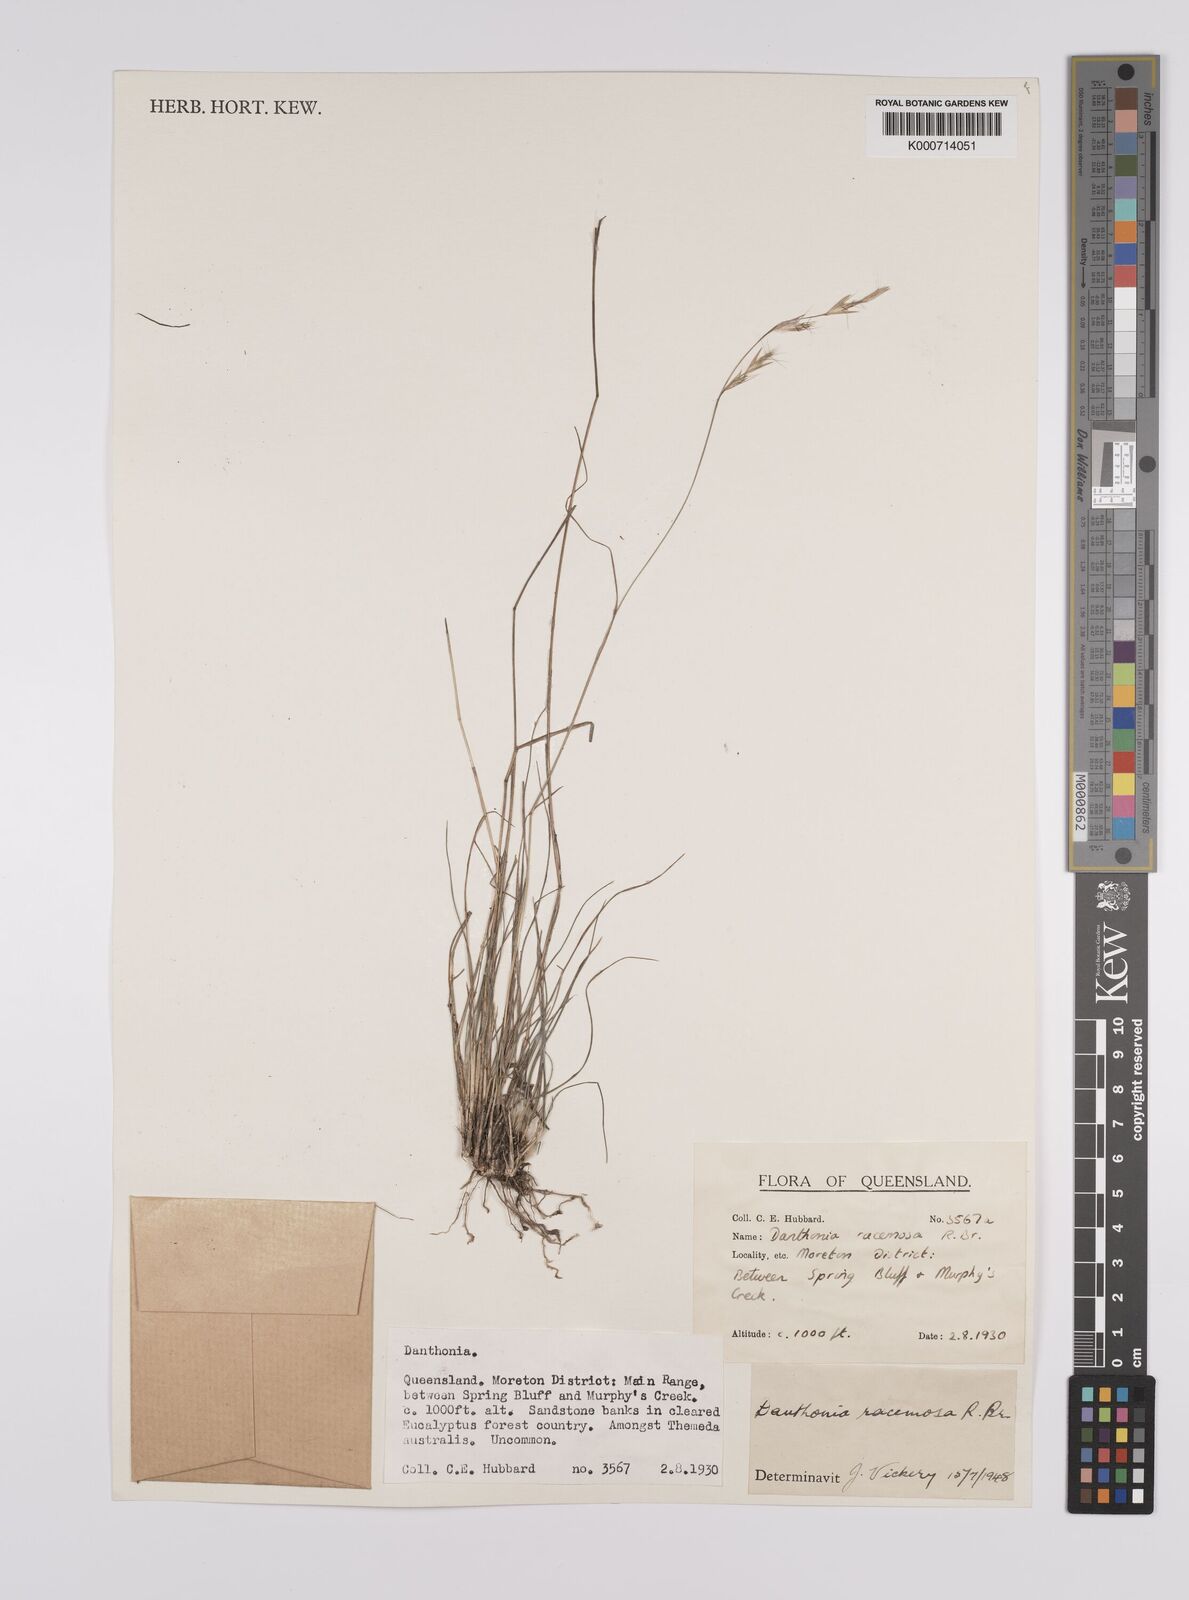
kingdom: Plantae
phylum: Tracheophyta
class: Liliopsida
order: Poales
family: Poaceae
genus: Rytidosperma
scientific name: Rytidosperma racemosum
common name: Wallaby-grass
